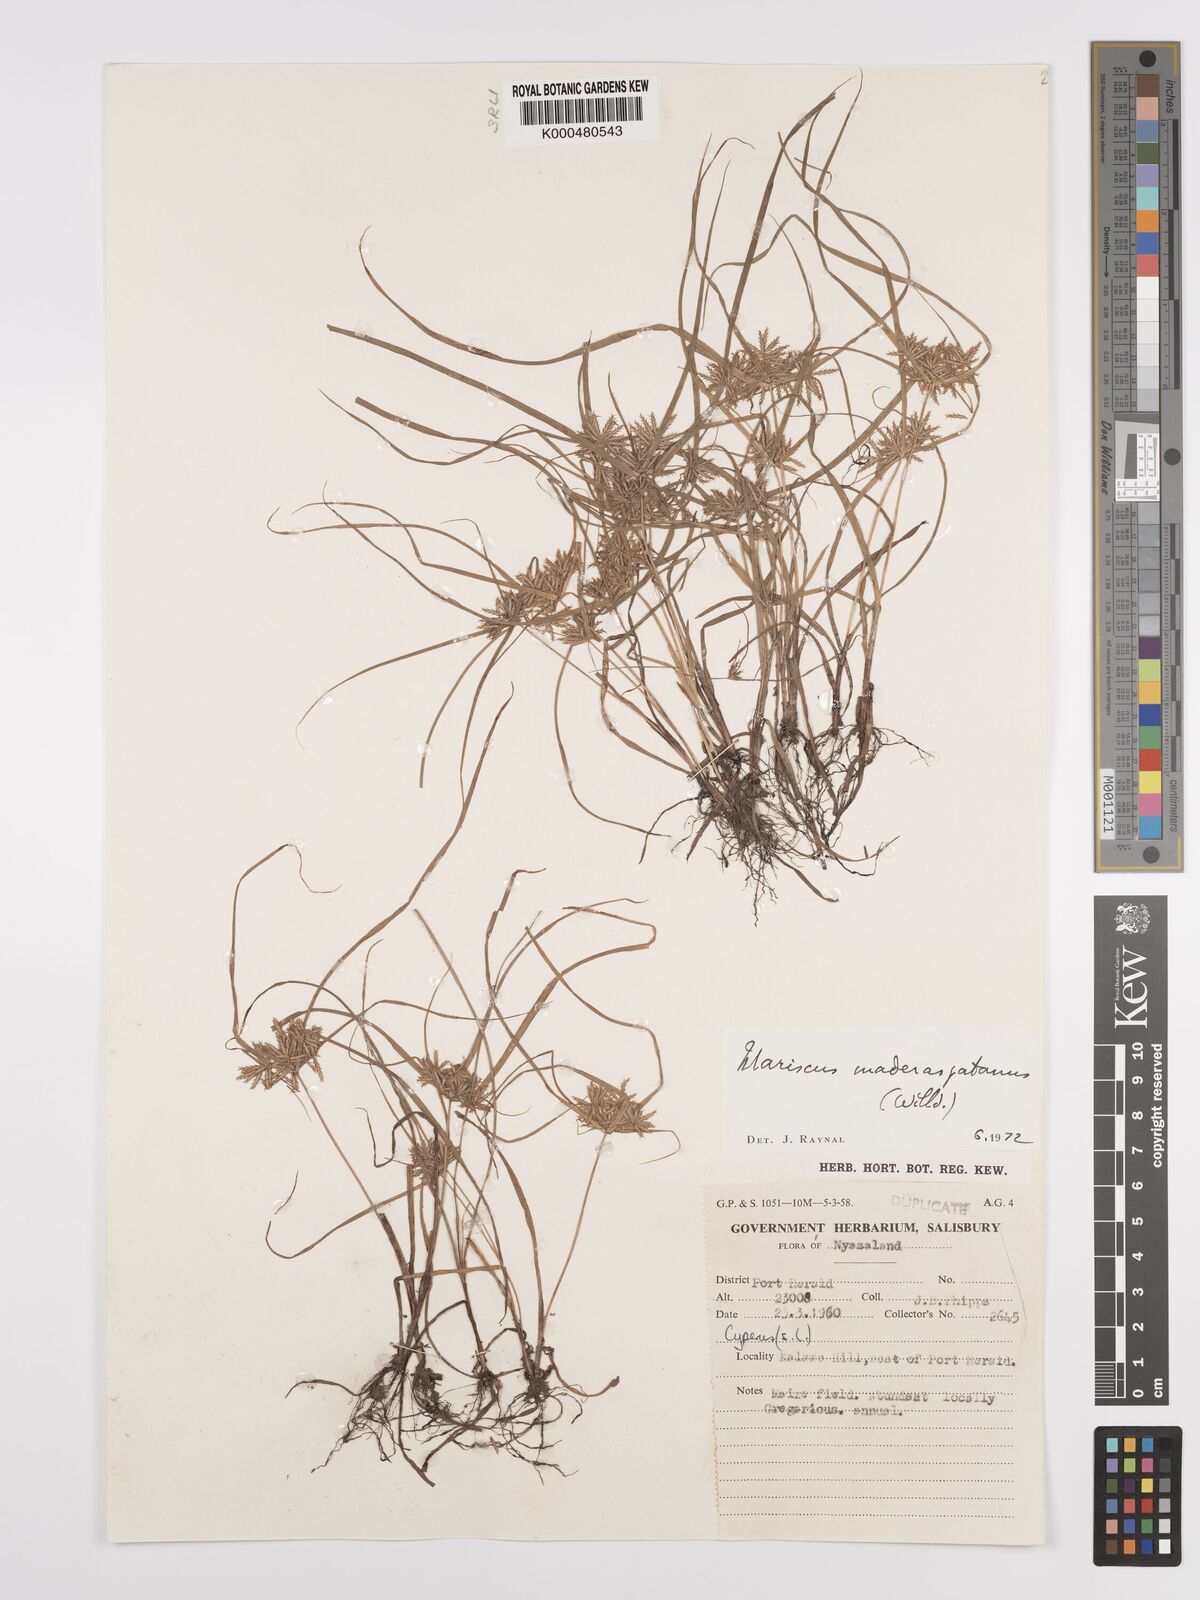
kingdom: Plantae
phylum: Tracheophyta
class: Liliopsida
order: Poales
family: Cyperaceae
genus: Cyperus
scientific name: Cyperus maderaspatanus
